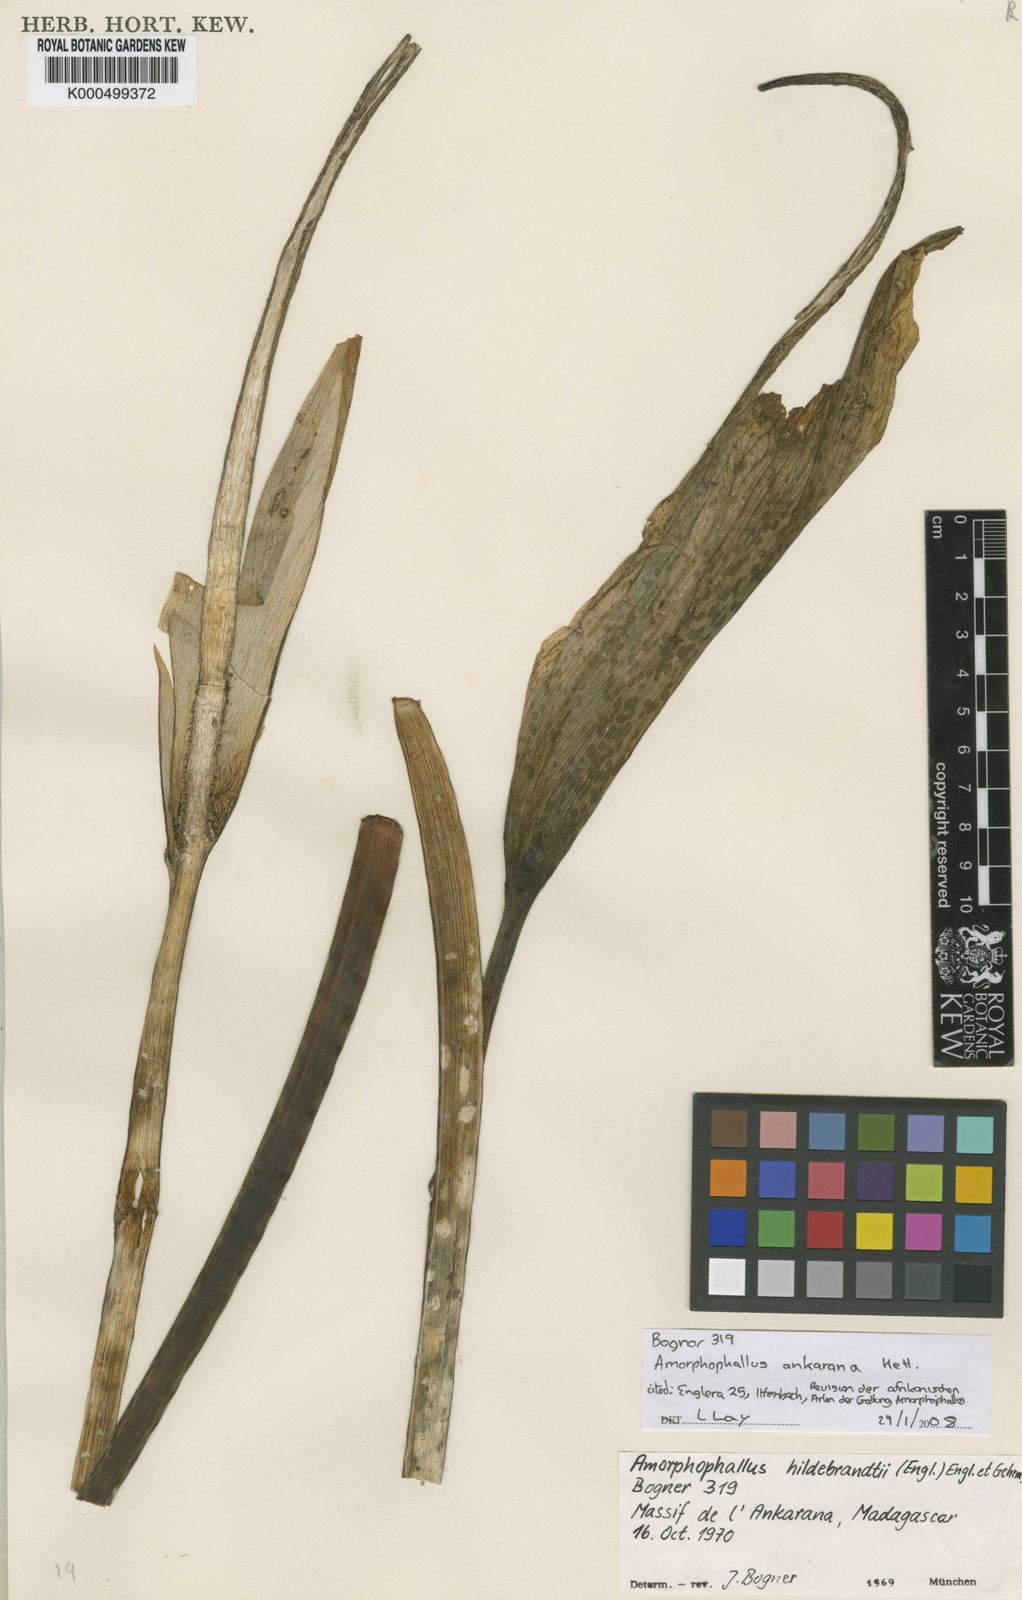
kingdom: Plantae
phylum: Tracheophyta
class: Liliopsida
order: Alismatales
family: Araceae
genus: Amorphophallus
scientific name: Amorphophallus ankarana
